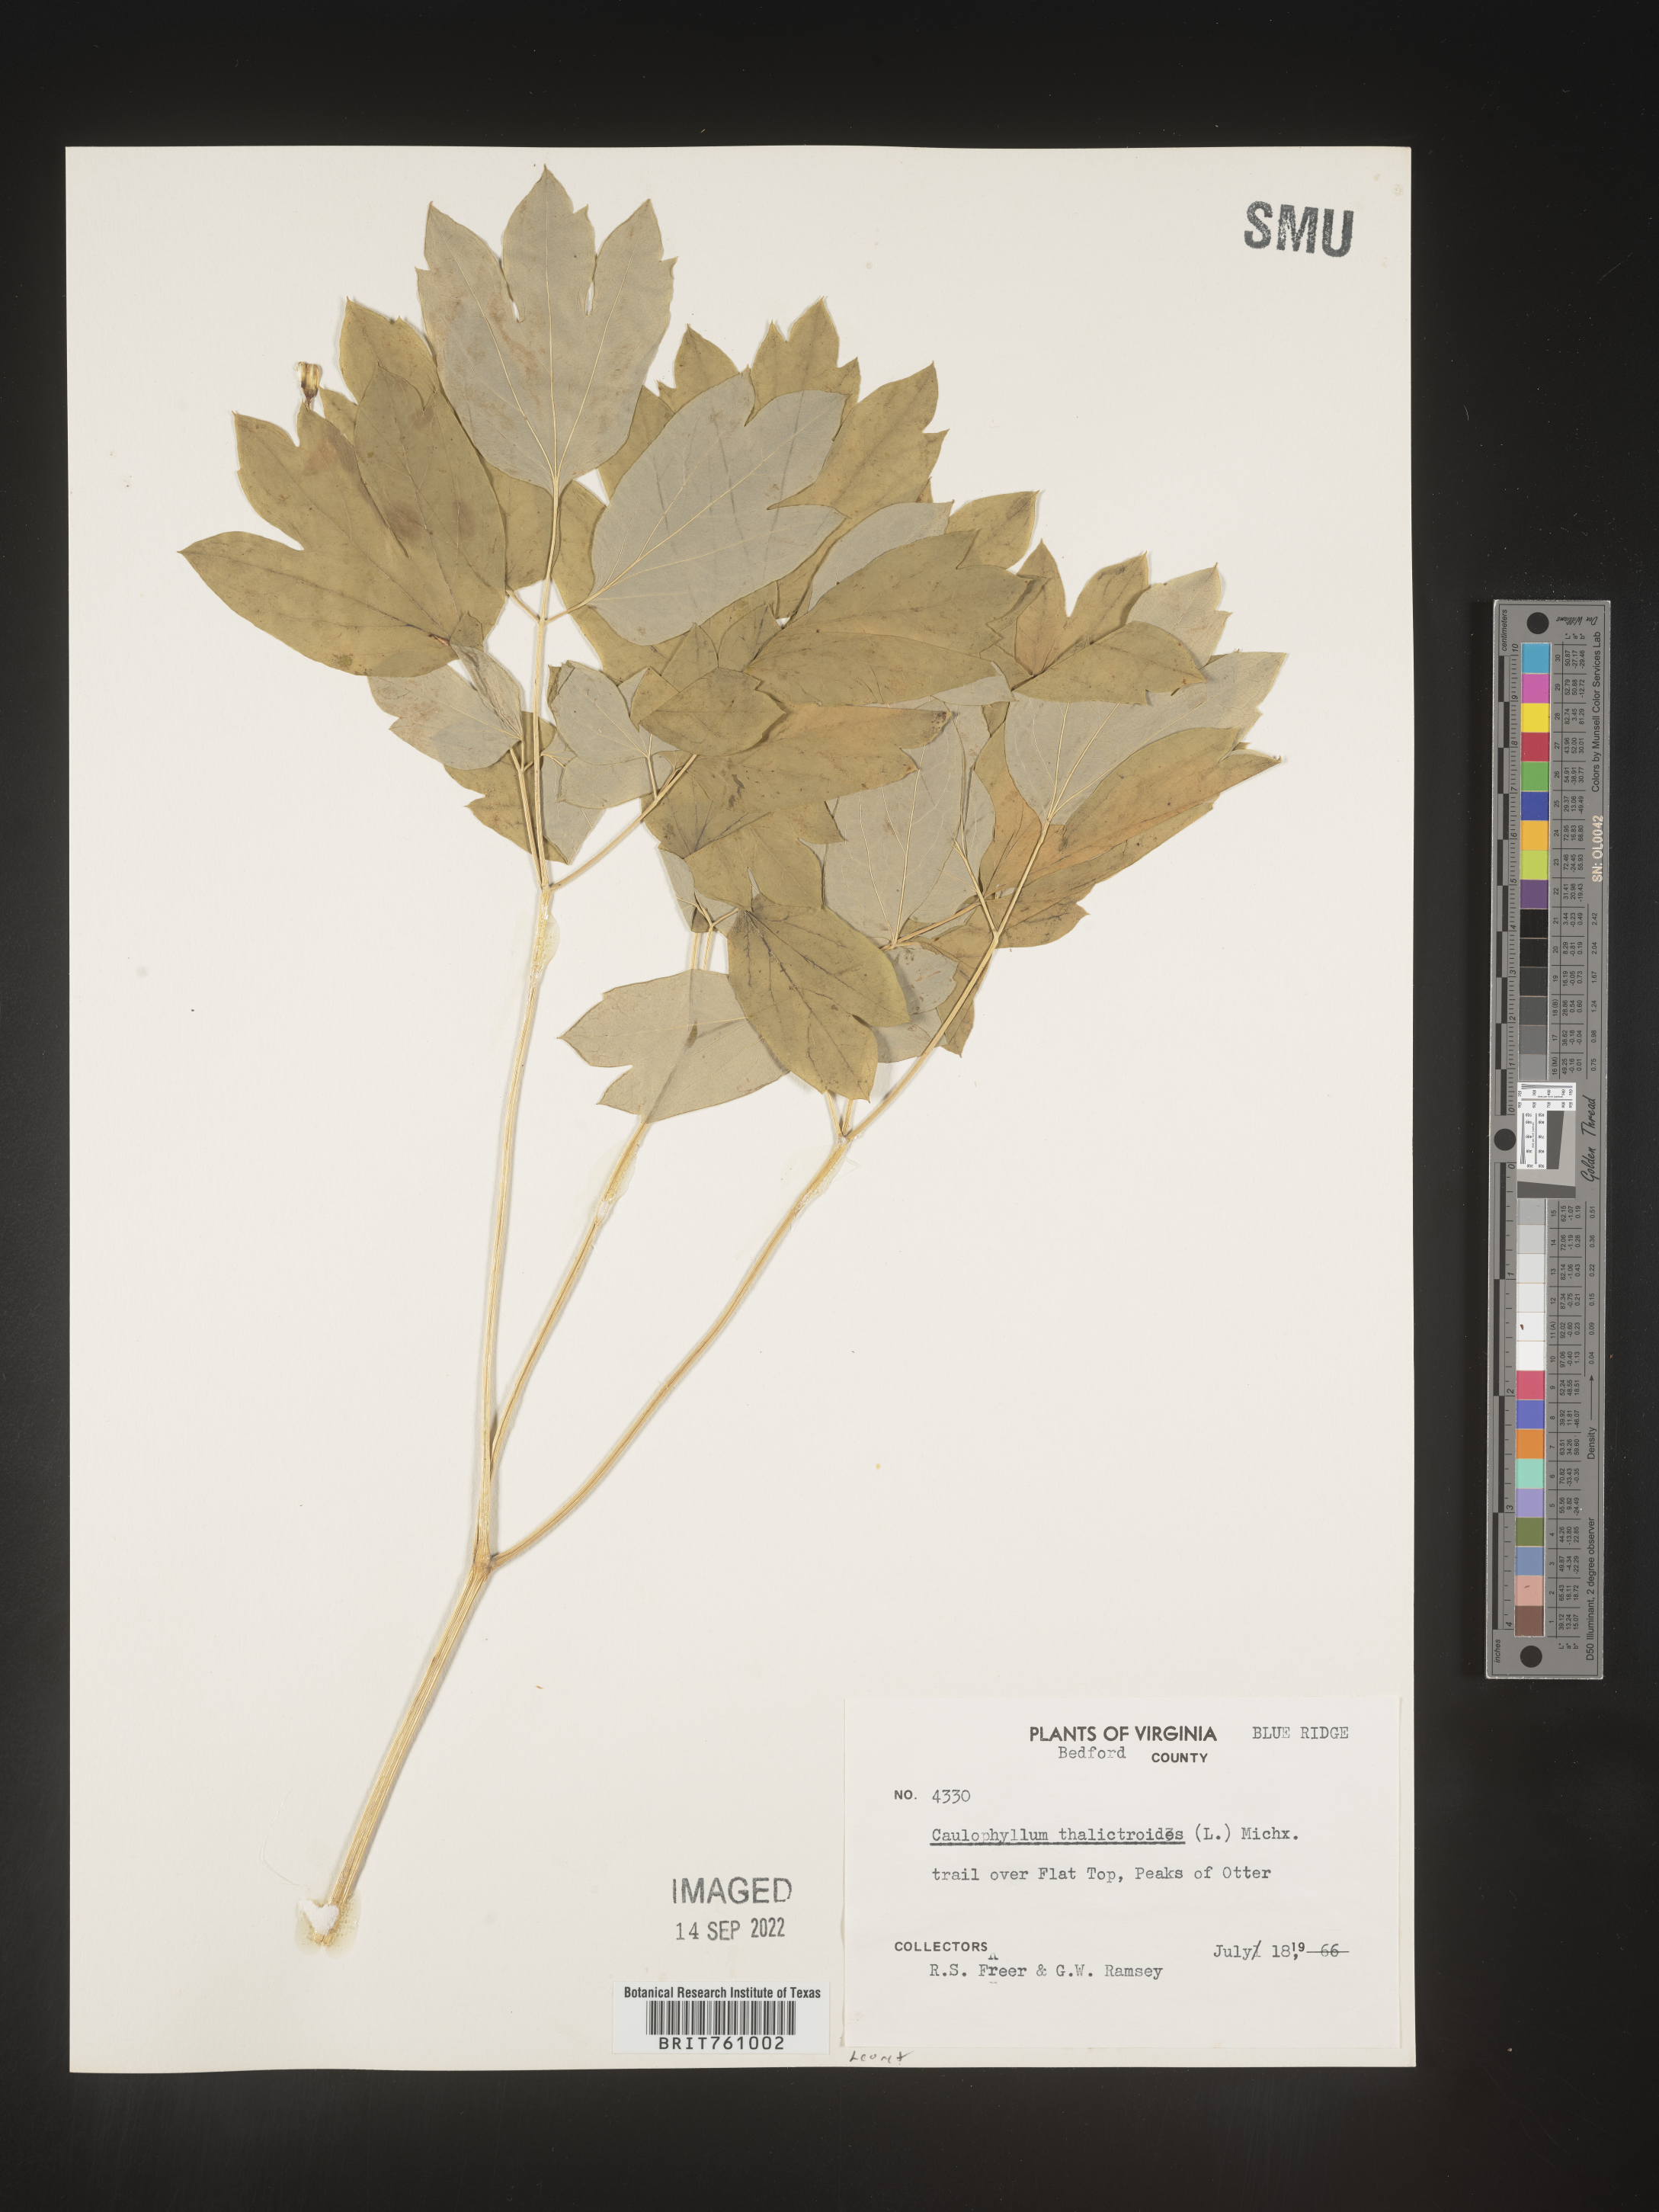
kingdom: Plantae
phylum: Tracheophyta
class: Magnoliopsida
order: Ranunculales
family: Berberidaceae
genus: Caulophyllum
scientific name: Caulophyllum thalictroides
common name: Blue cohosh
